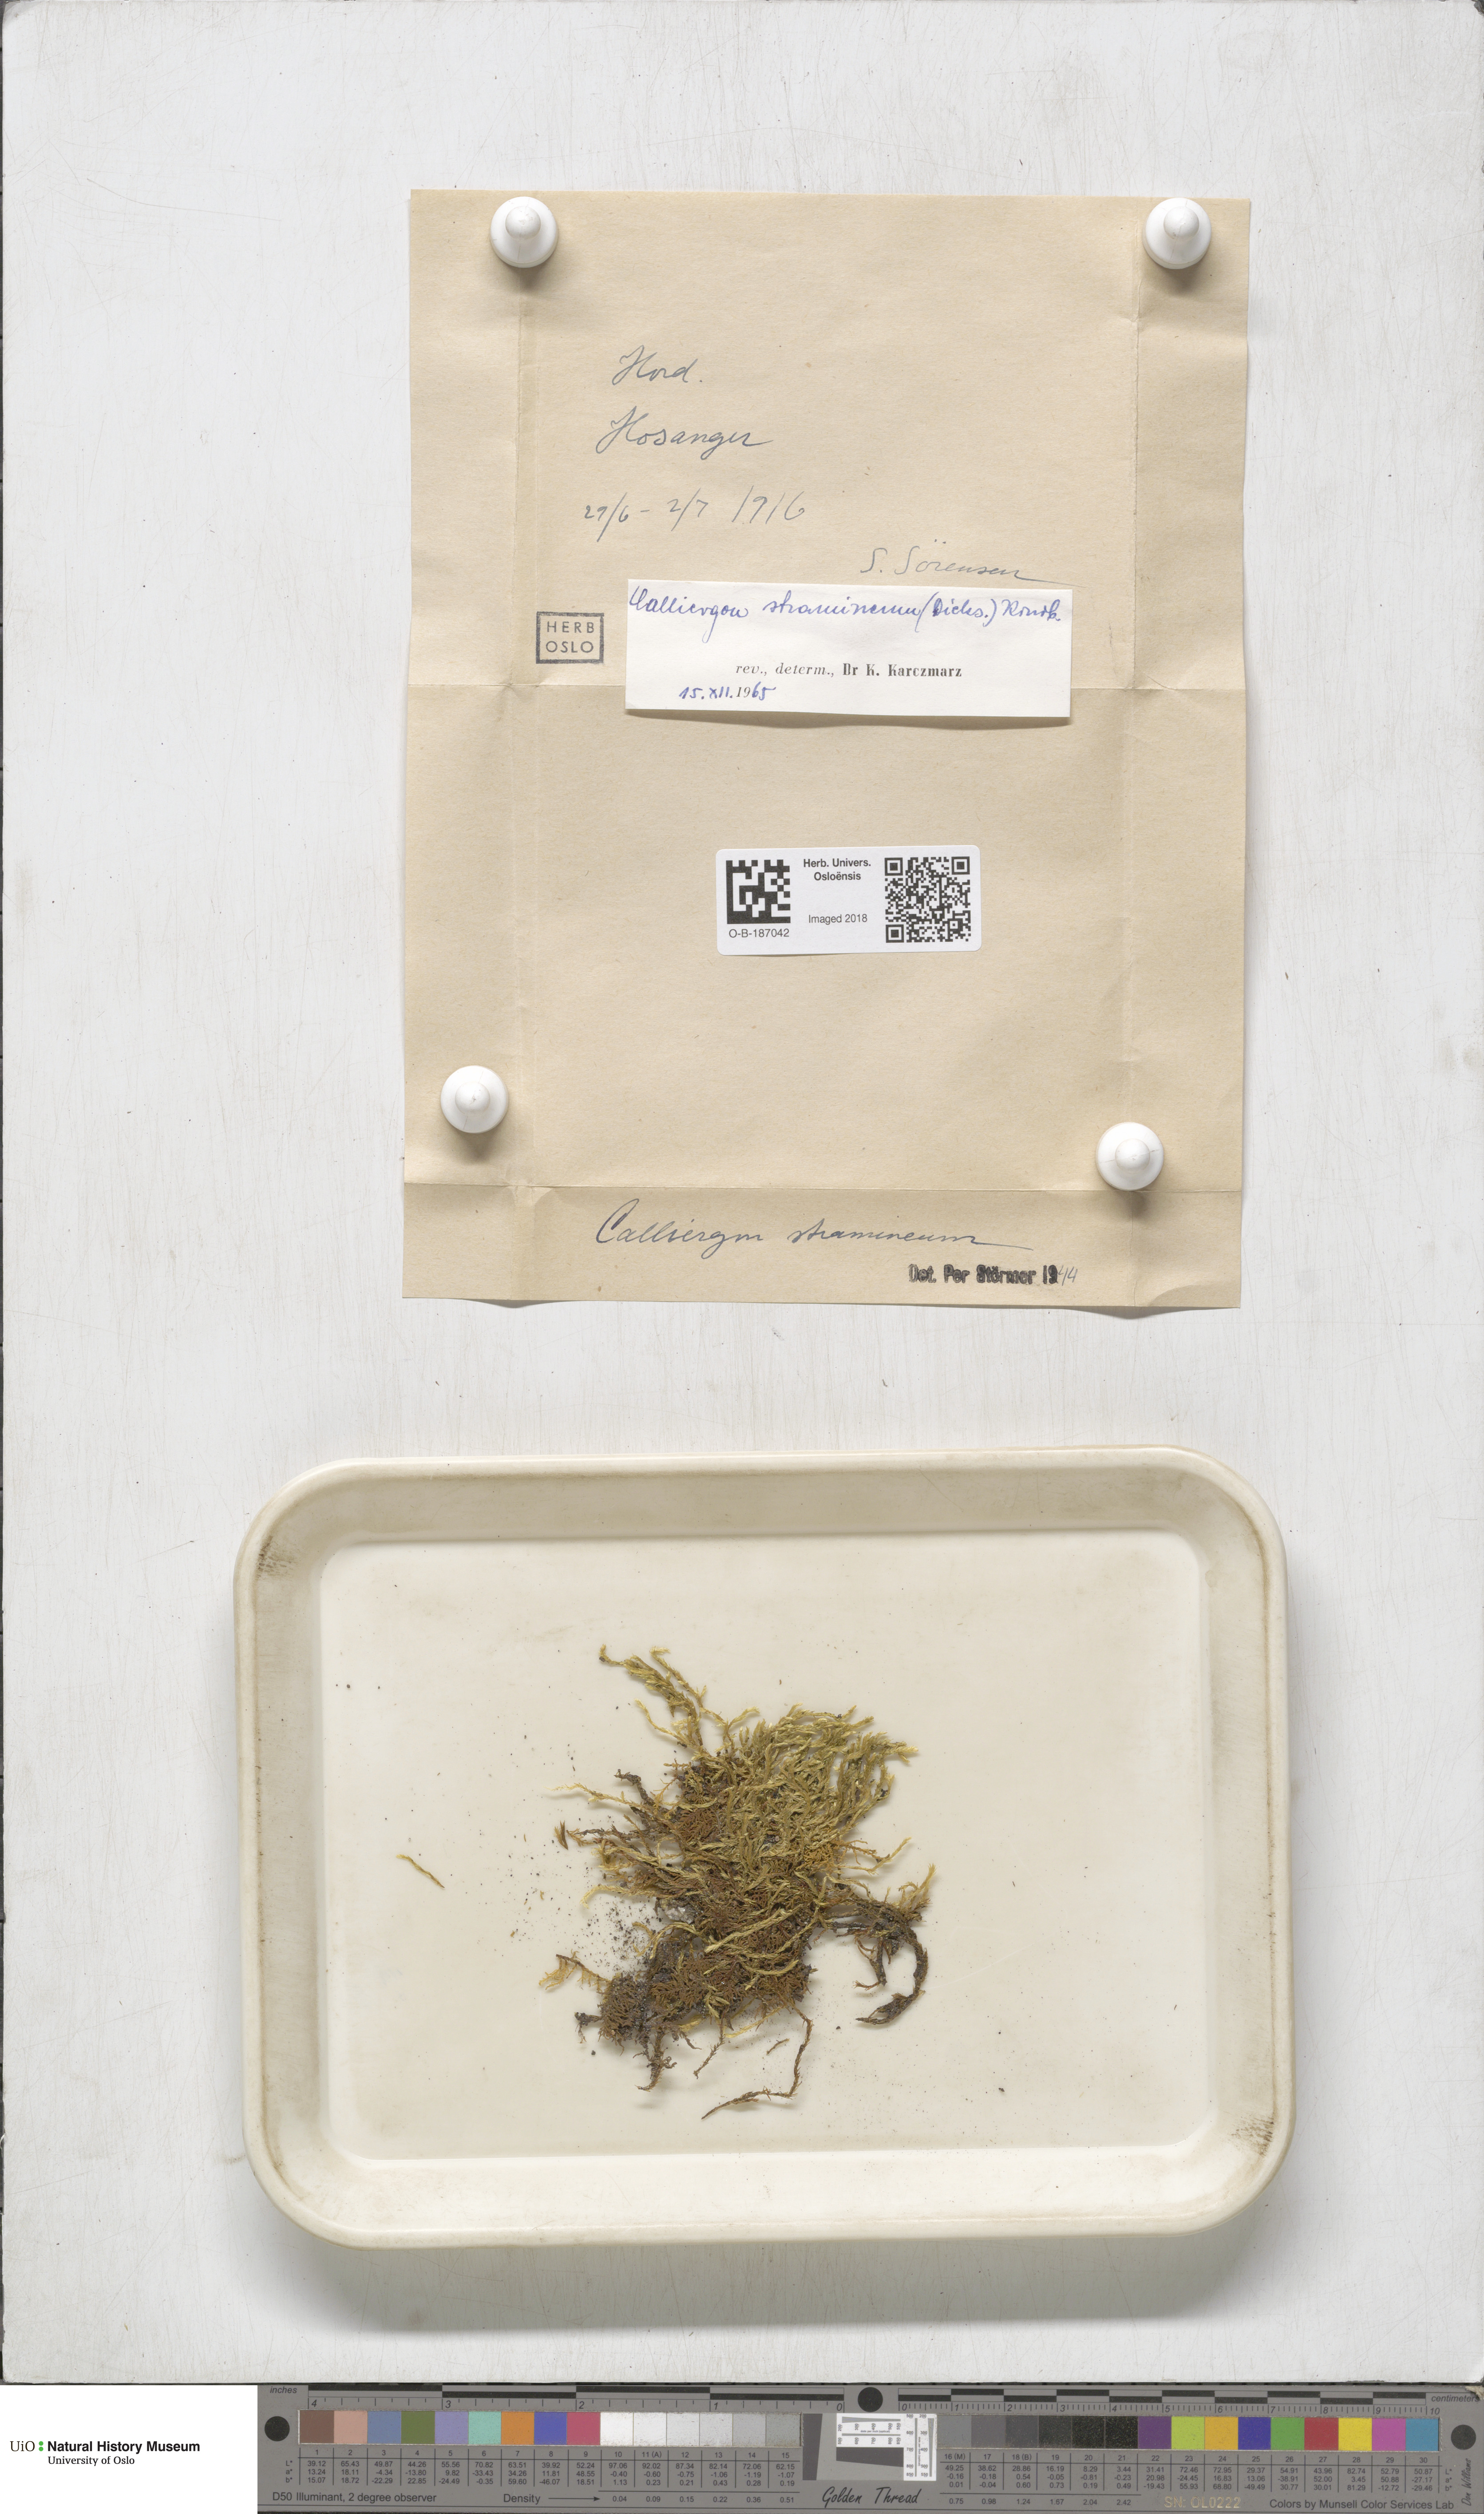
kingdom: Plantae
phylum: Bryophyta
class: Bryopsida
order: Hypnales
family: Calliergonaceae
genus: Straminergon
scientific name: Straminergon stramineum
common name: Straw moss
